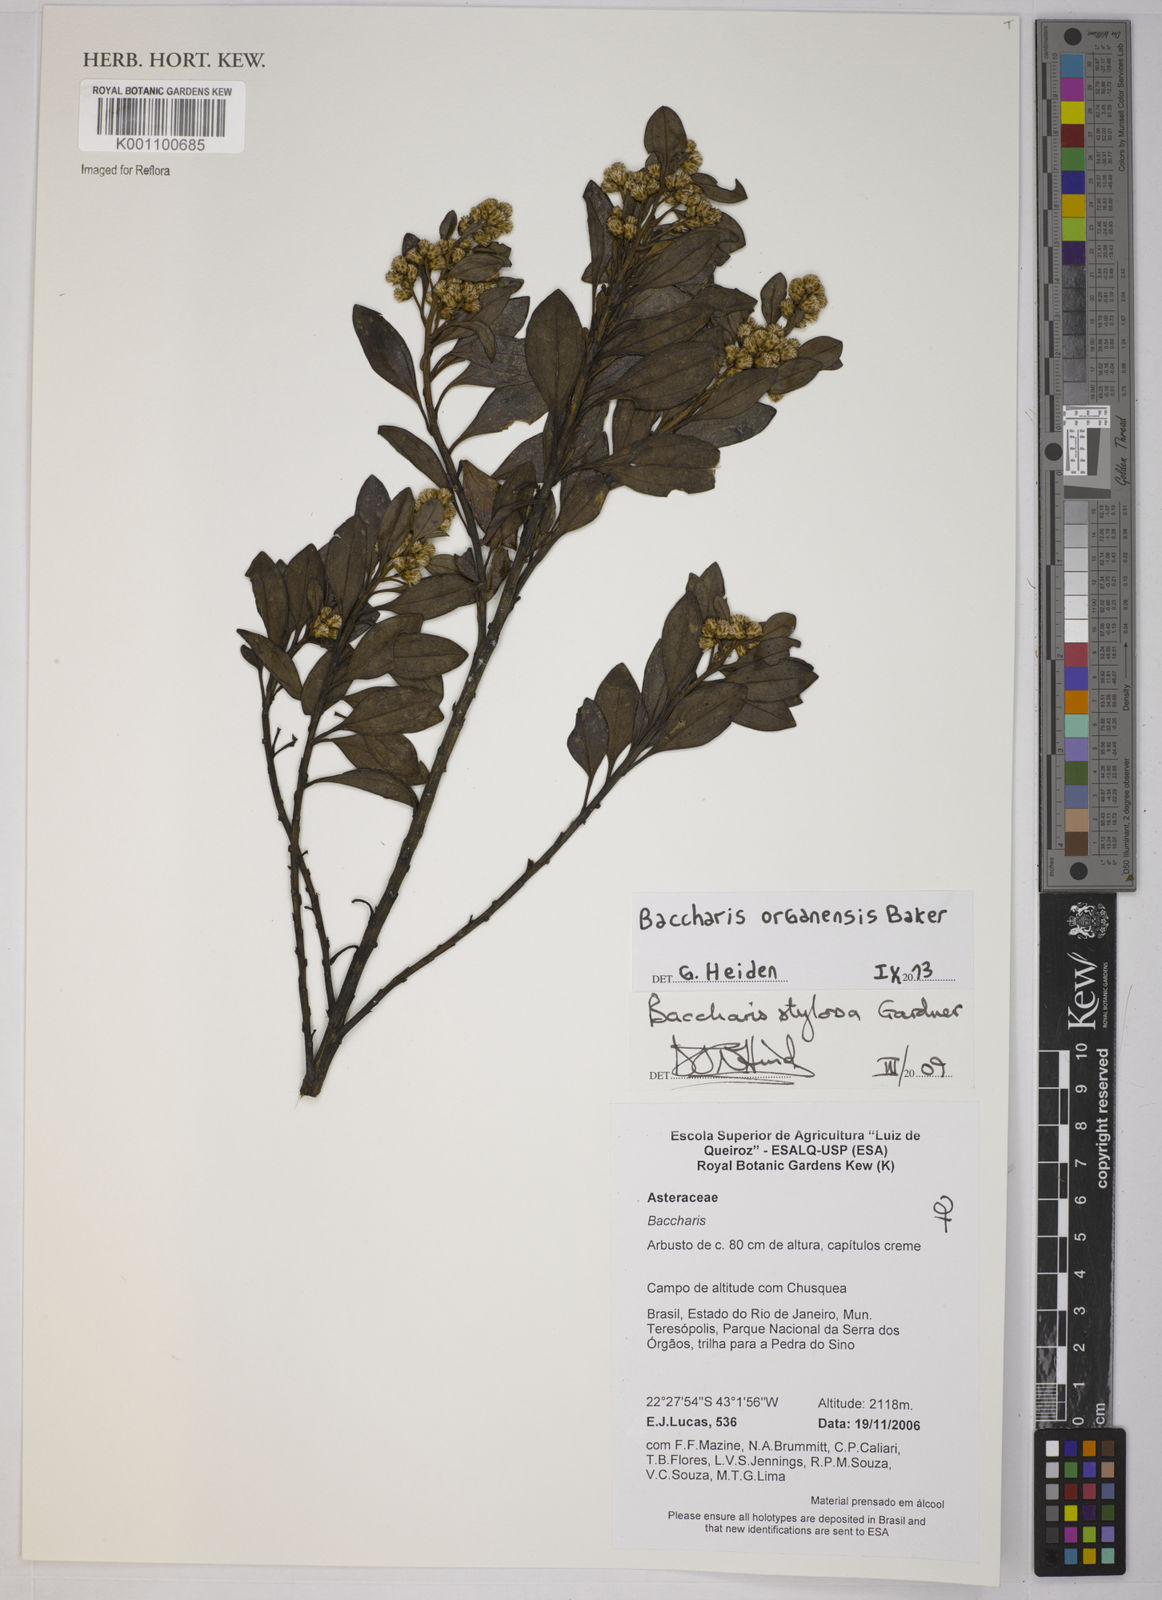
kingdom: Plantae
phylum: Tracheophyta
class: Magnoliopsida
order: Asterales
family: Asteraceae
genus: Baccharis
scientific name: Baccharis organensis
